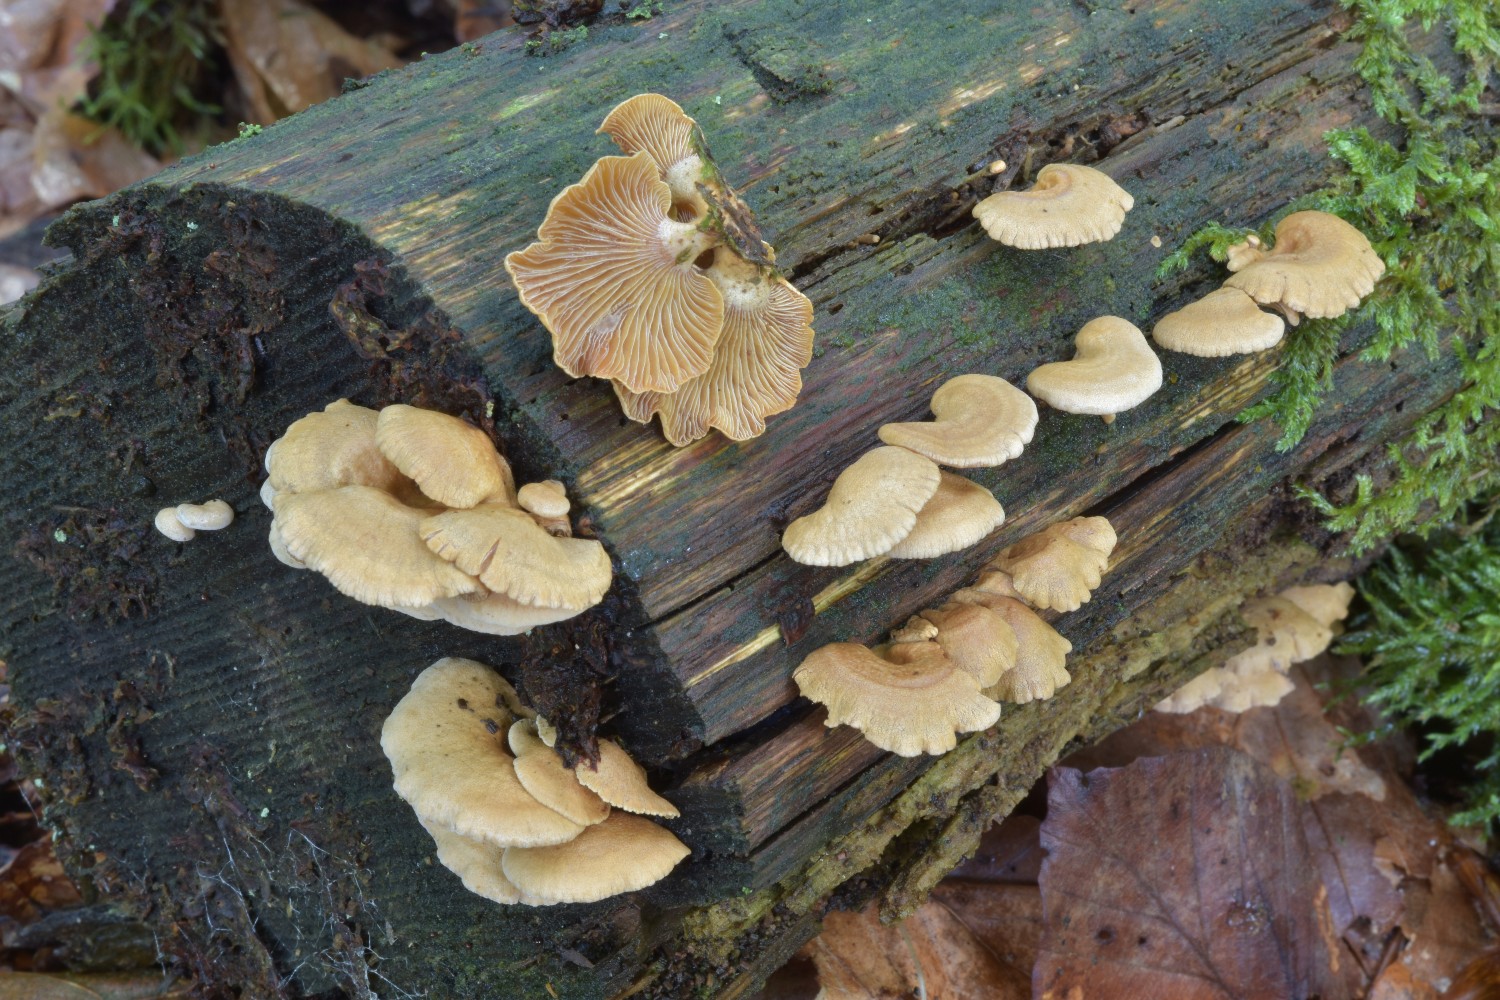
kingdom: Fungi
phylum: Basidiomycota
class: Agaricomycetes
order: Agaricales
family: Mycenaceae
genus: Panellus
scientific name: Panellus stipticus
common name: kliddet epaulethat
